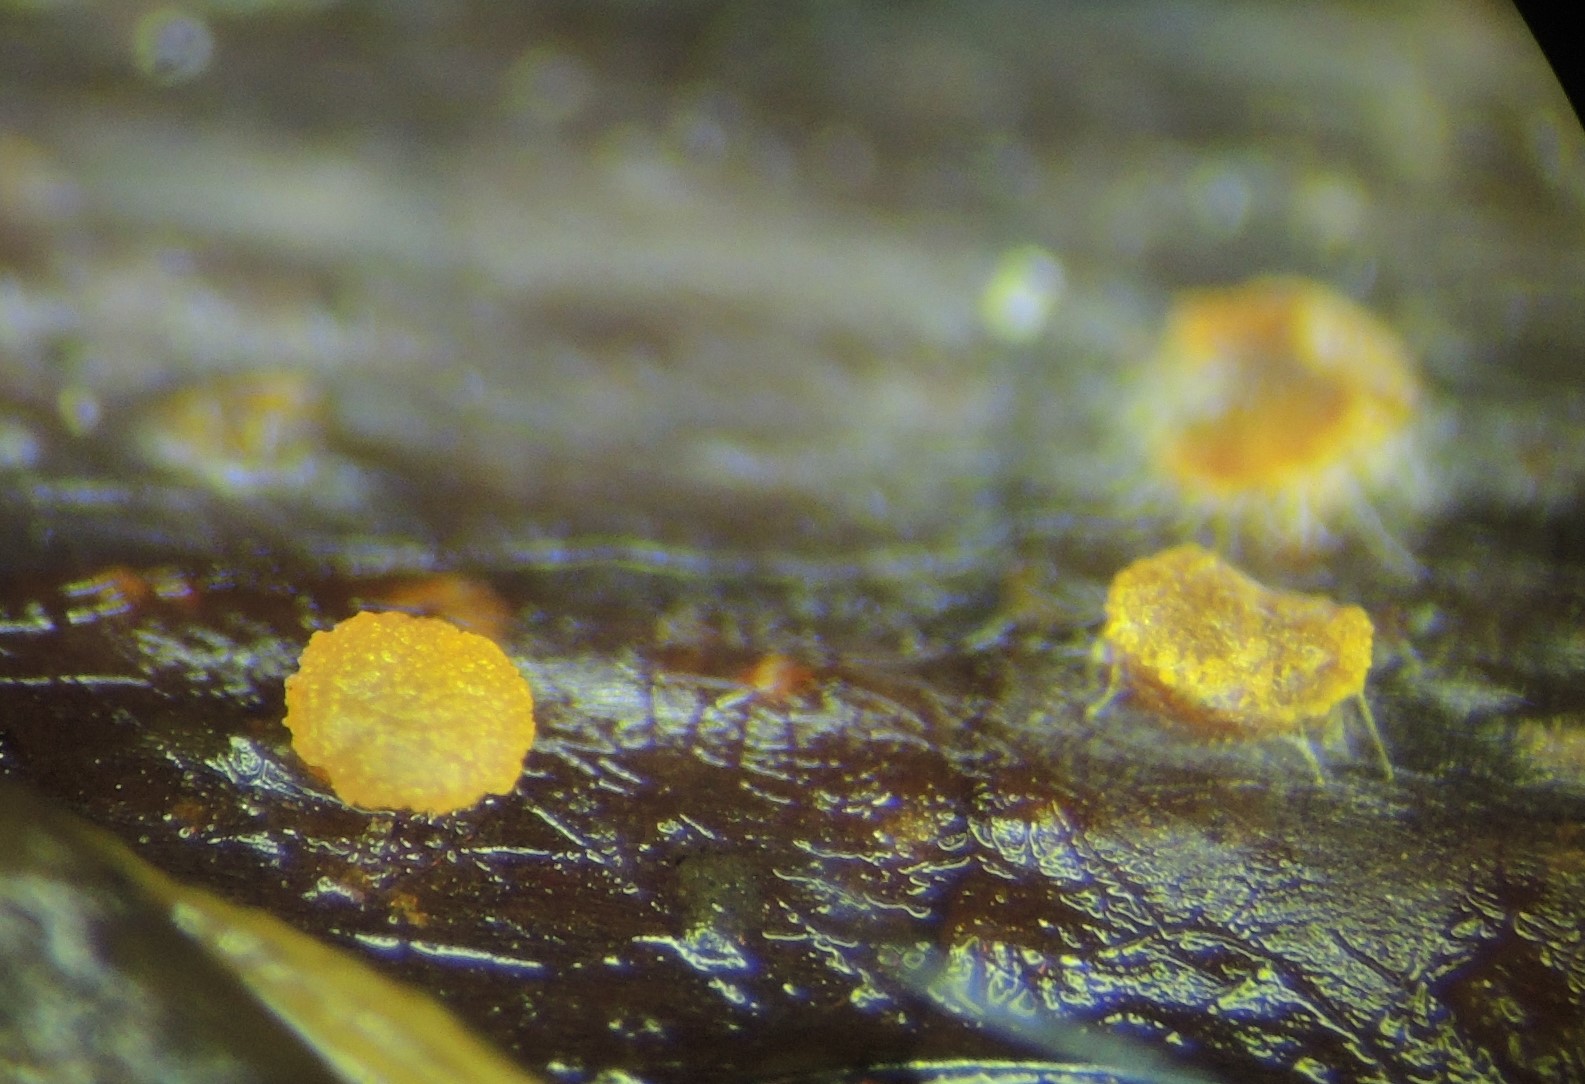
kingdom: Fungi
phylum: Ascomycota
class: Leotiomycetes
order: Helotiales
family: Dermateaceae
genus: Pezicula
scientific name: Pezicula rubi
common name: brombær-klyngeskive
